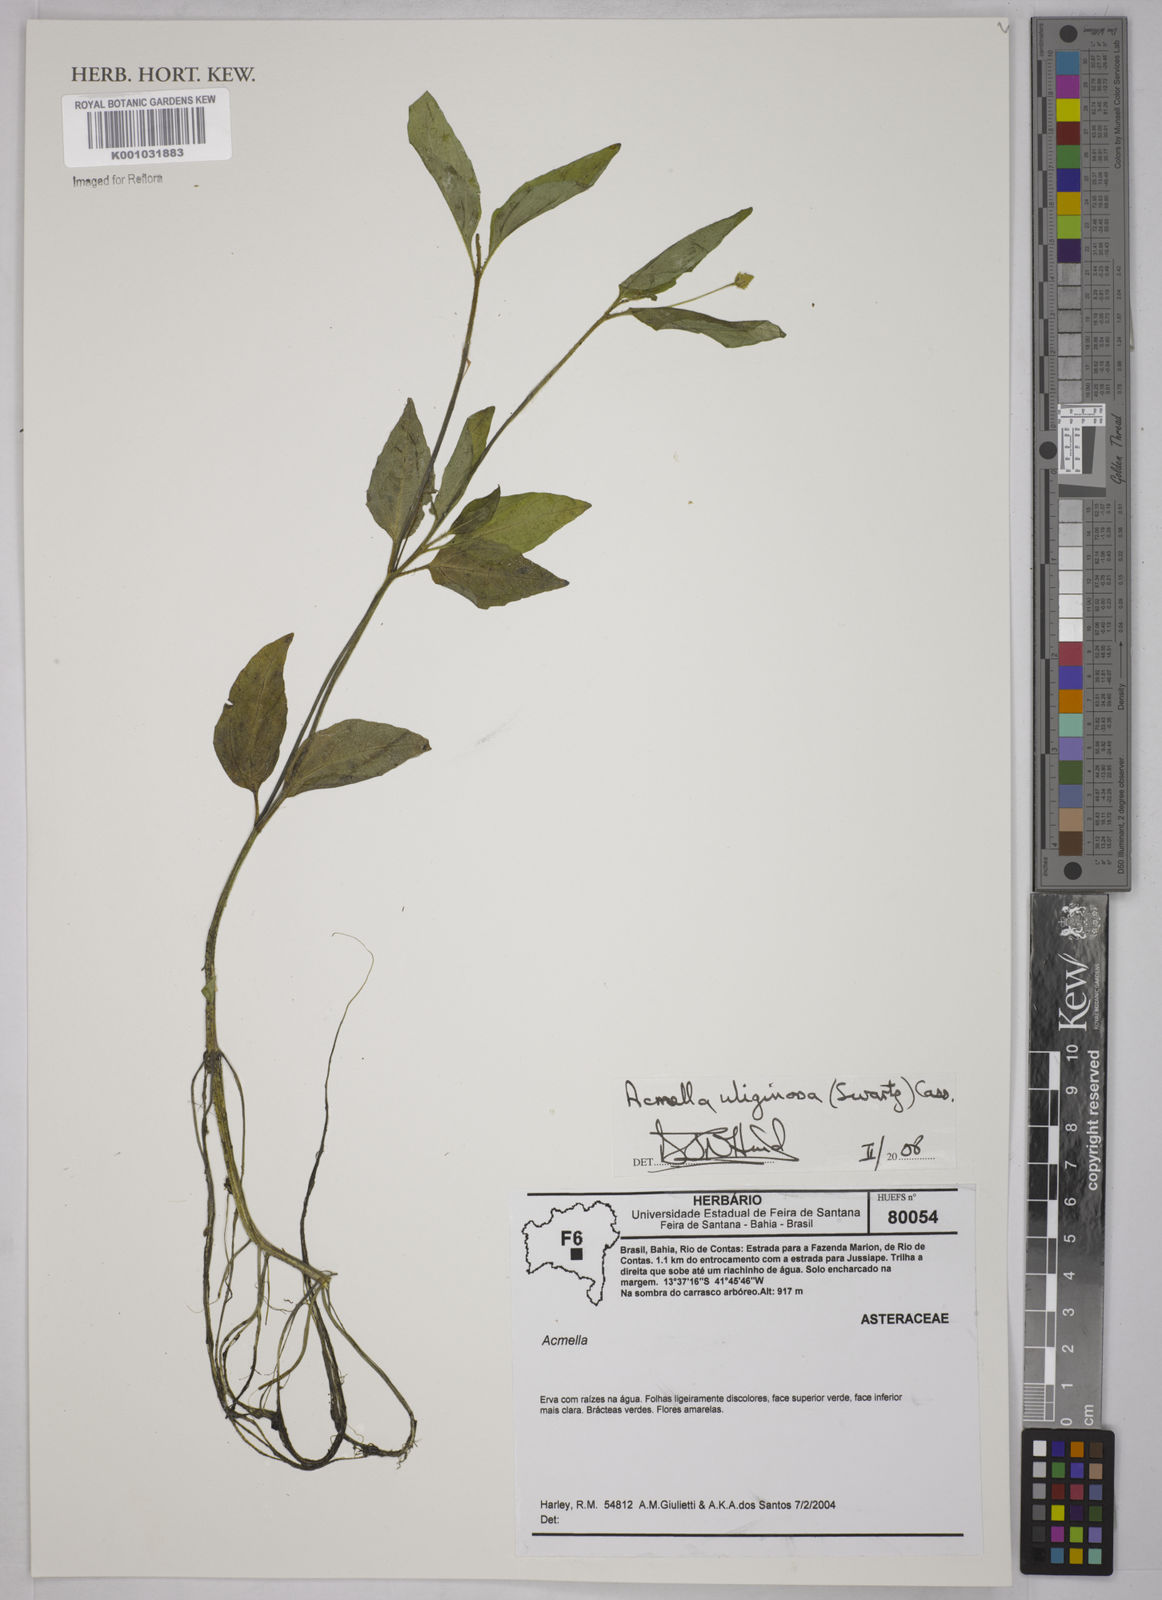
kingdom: Plantae
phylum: Tracheophyta
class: Magnoliopsida
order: Asterales
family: Asteraceae
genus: Acmella
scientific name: Acmella uliginosa
